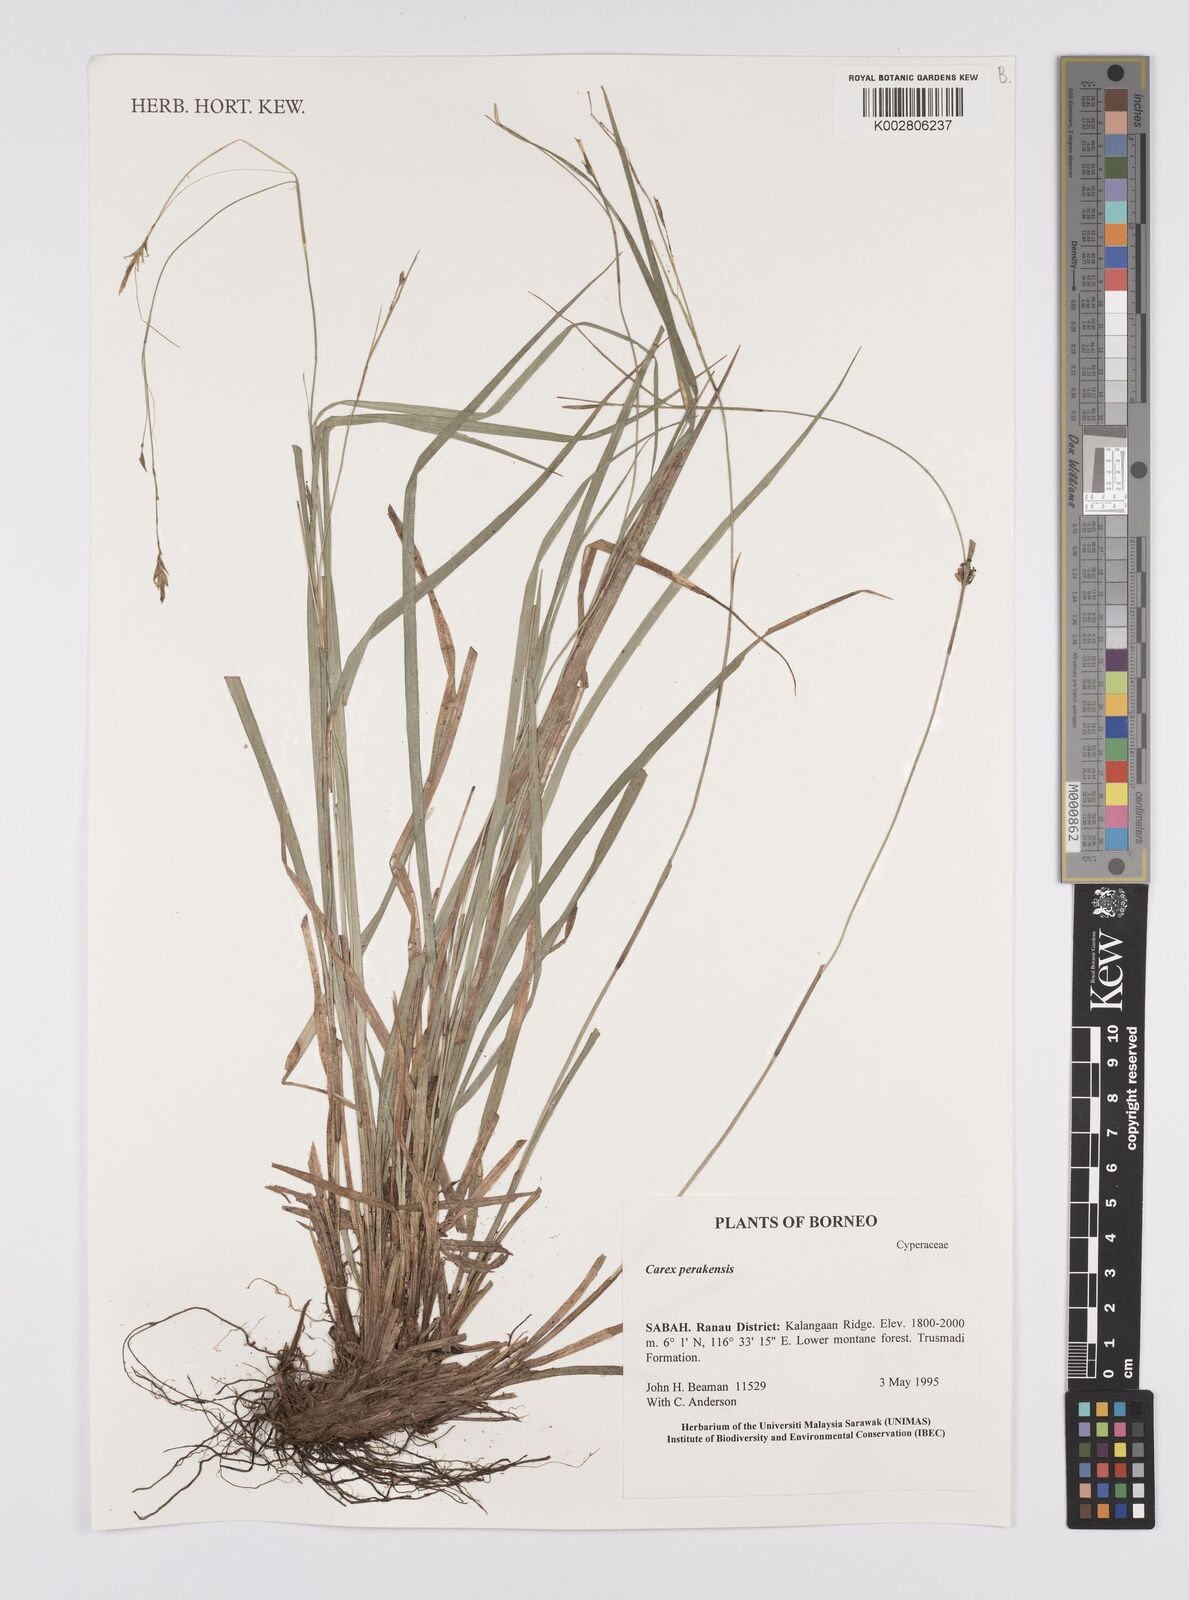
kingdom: Plantae
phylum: Tracheophyta
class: Liliopsida
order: Poales
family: Cyperaceae
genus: Carex
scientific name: Carex perakensis
